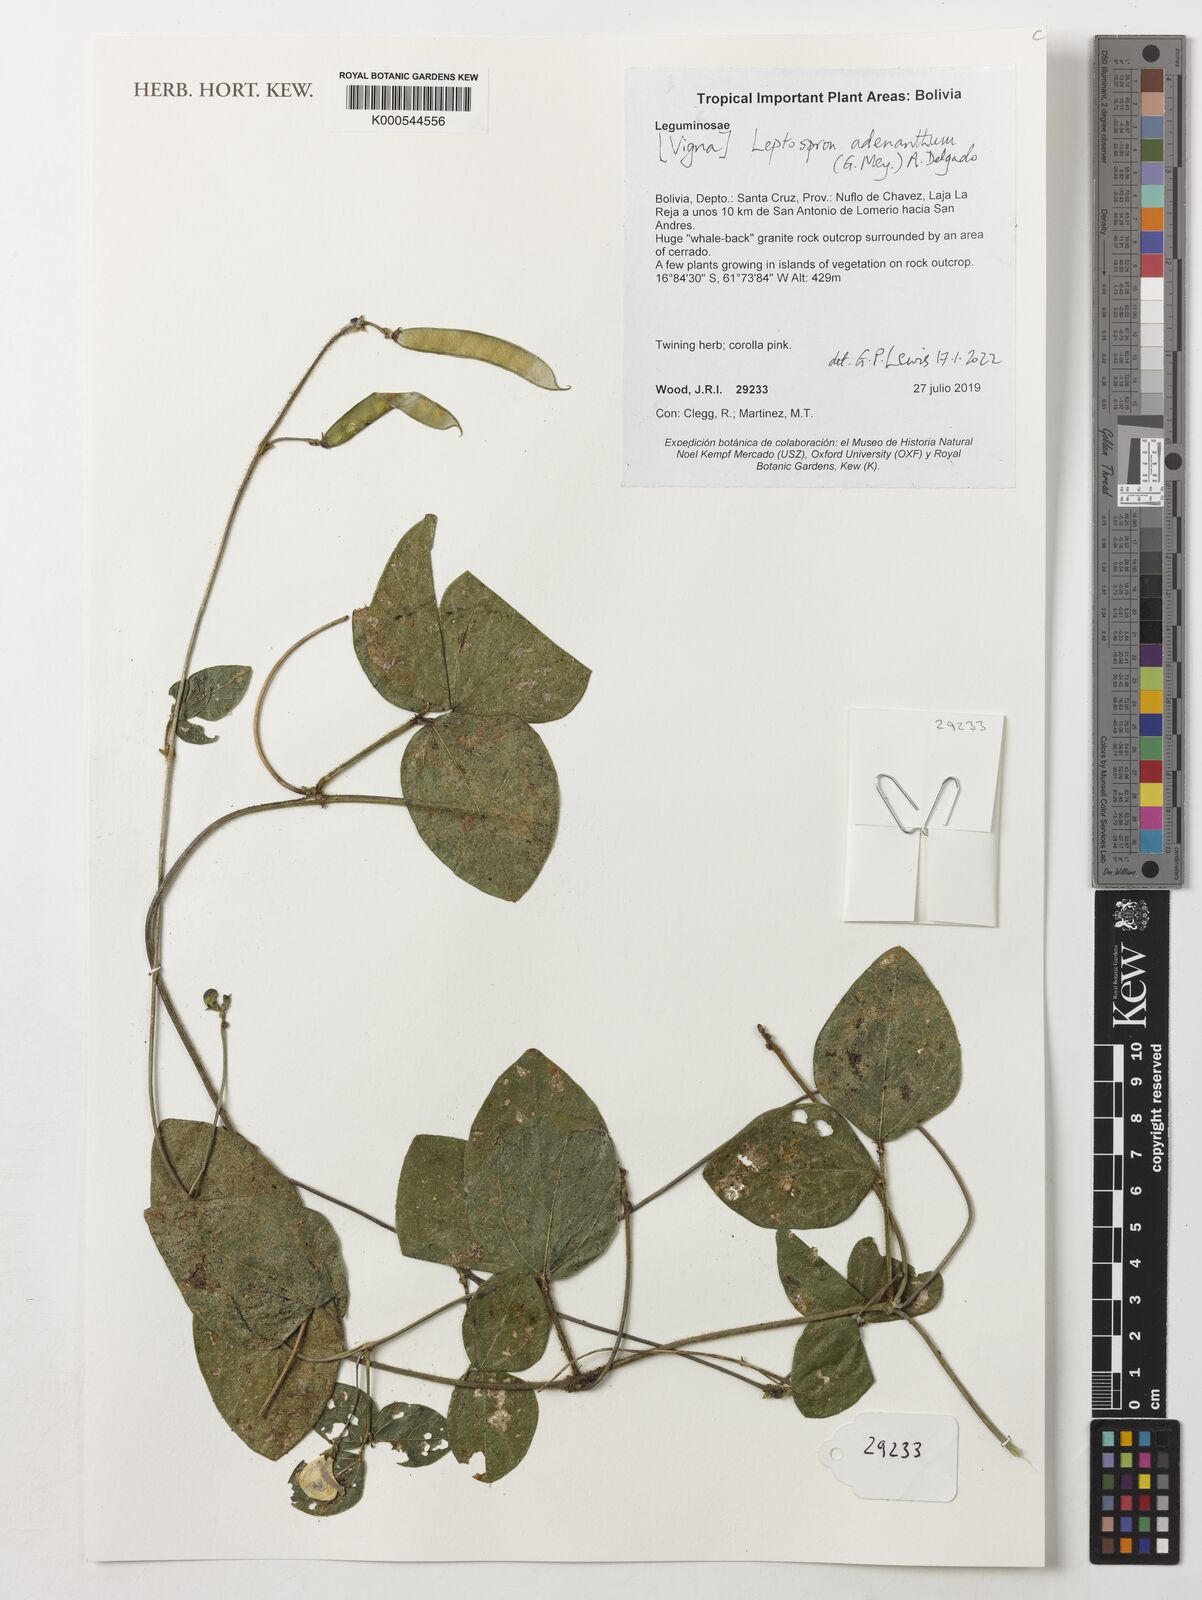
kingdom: Plantae
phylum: Tracheophyta
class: Magnoliopsida
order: Fabales
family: Fabaceae
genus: Leptospron
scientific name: Leptospron adenanthum
